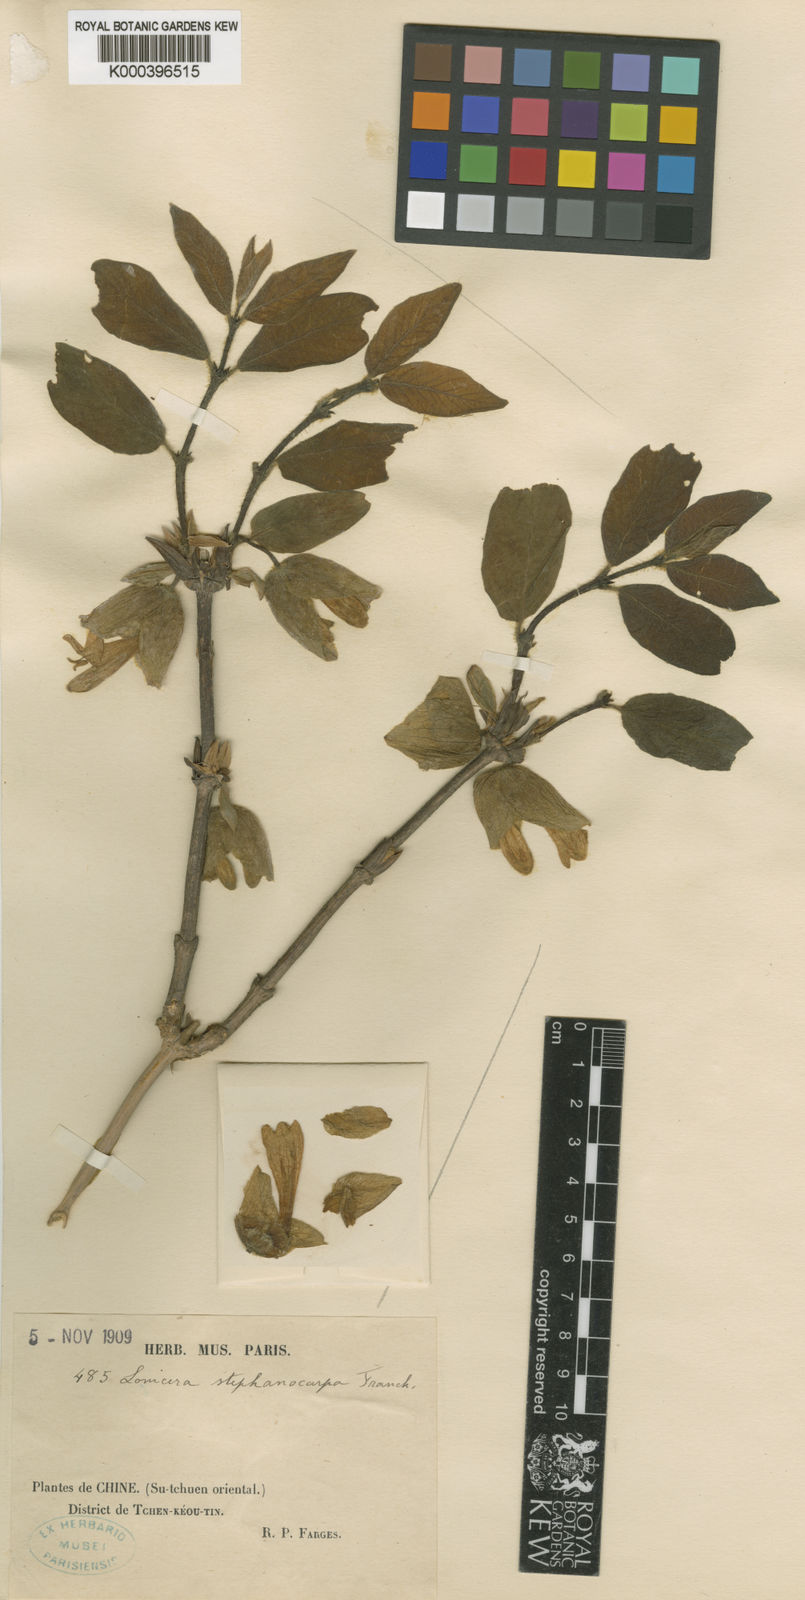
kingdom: Plantae
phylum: Tracheophyta
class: Magnoliopsida
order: Dipsacales
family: Caprifoliaceae
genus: Lonicera
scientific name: Lonicera stephanocarpa
